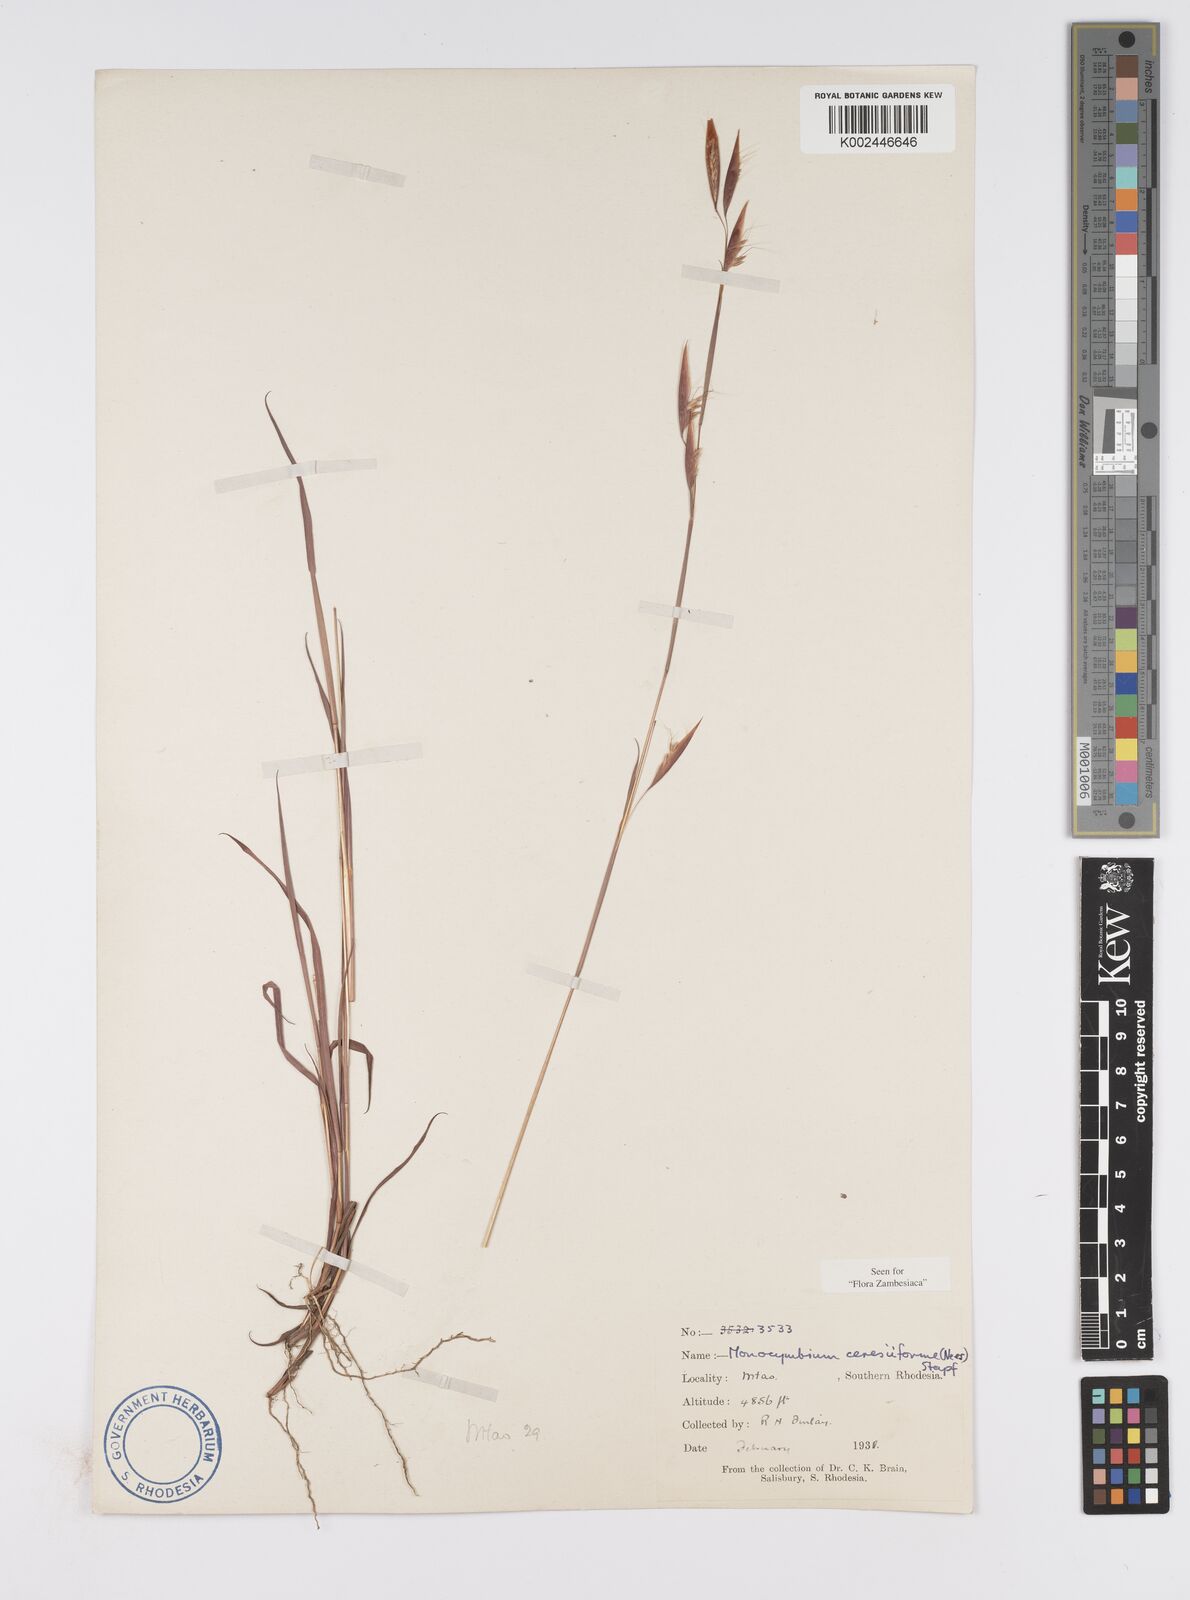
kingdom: Plantae
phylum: Tracheophyta
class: Liliopsida
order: Poales
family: Poaceae
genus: Monocymbium
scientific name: Monocymbium ceresiiforme
